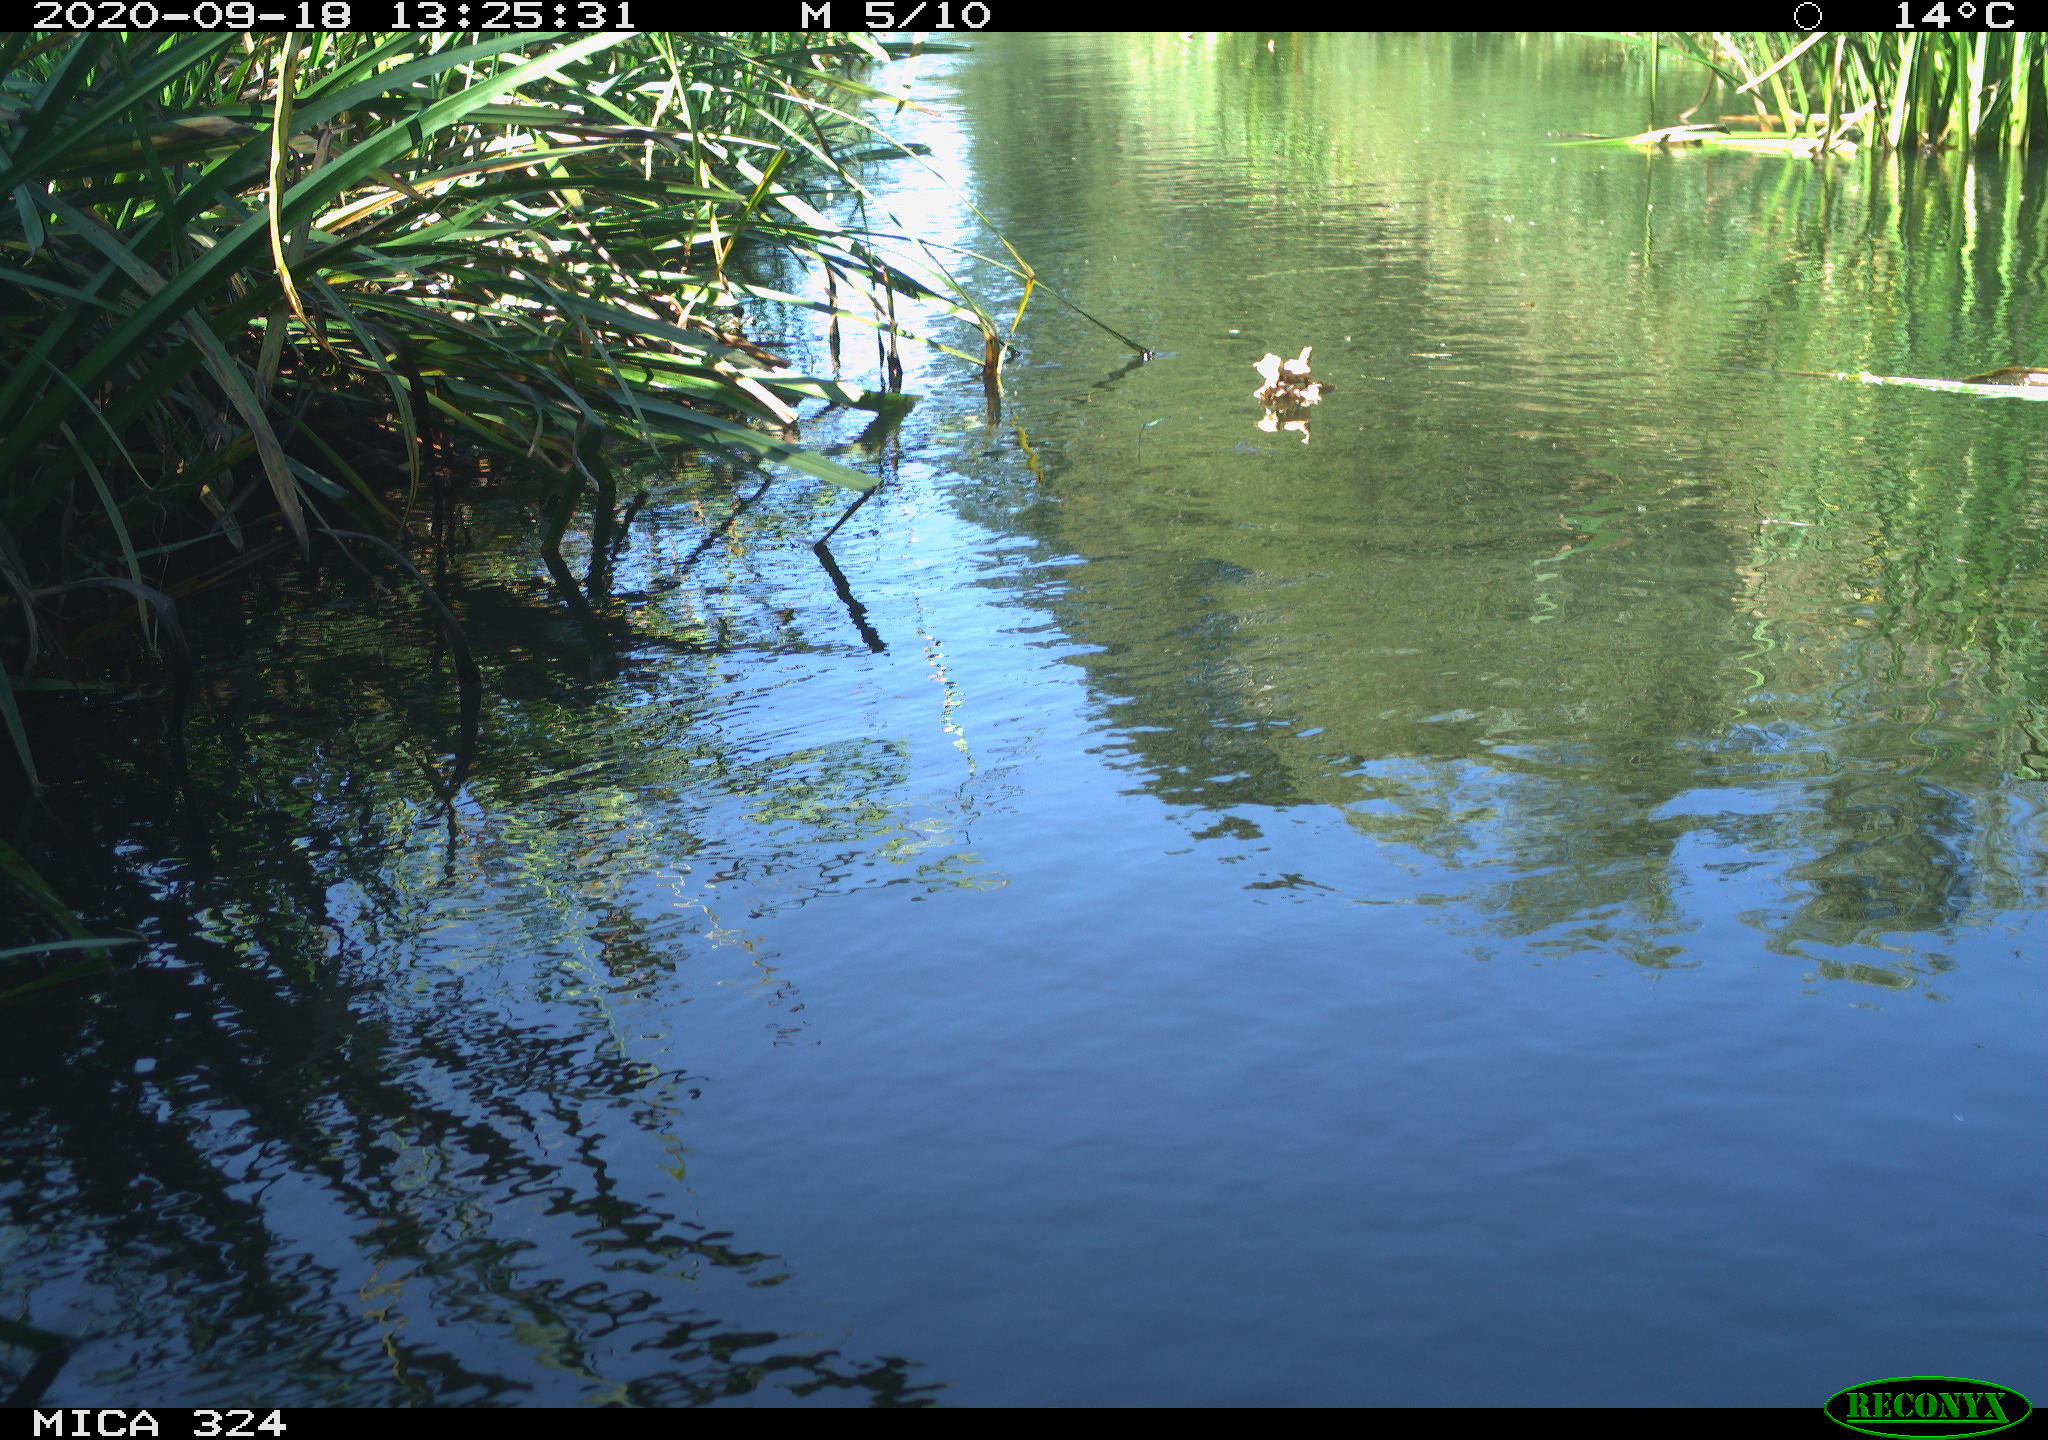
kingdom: Animalia
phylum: Chordata
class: Aves
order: Gruiformes
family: Rallidae
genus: Gallinula
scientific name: Gallinula chloropus
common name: Common moorhen
